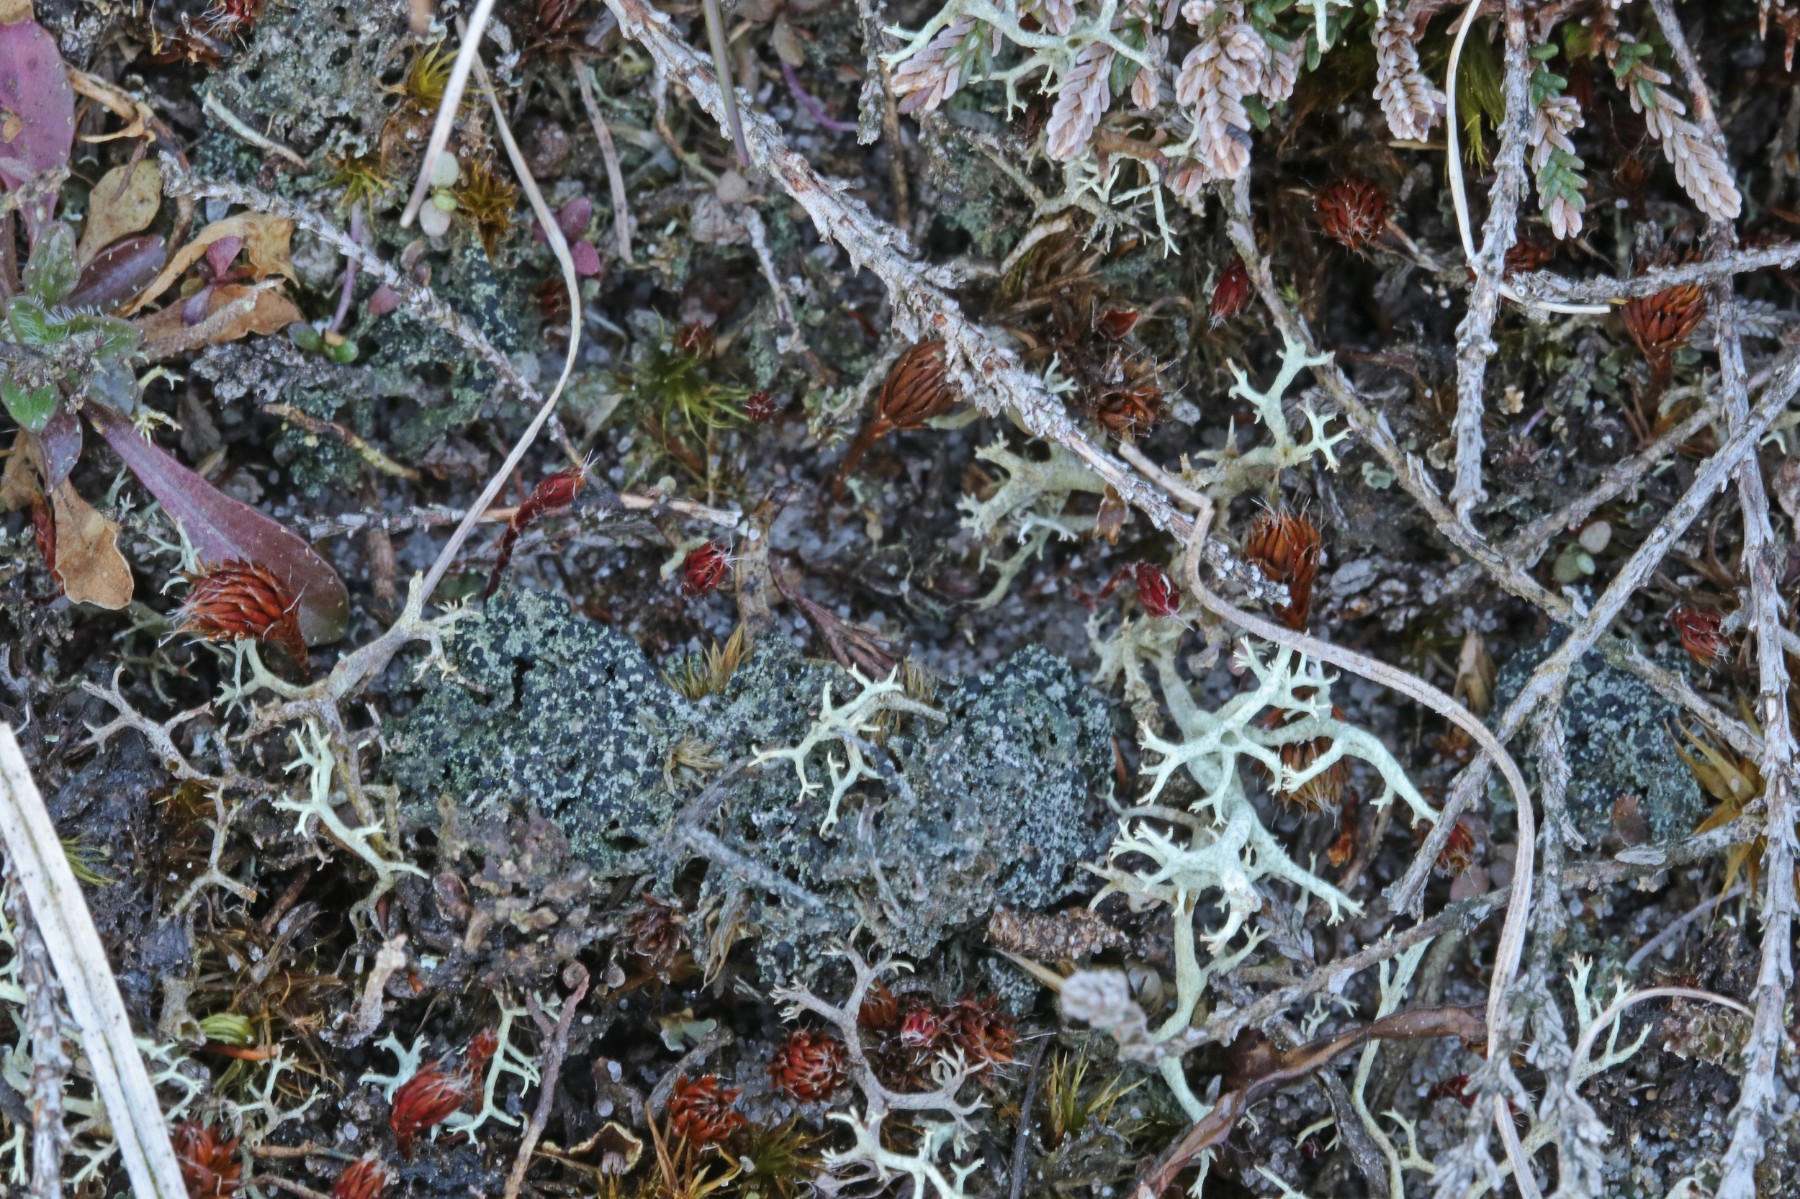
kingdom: Fungi
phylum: Ascomycota
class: Lecanoromycetes
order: Lecanorales
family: Byssolomataceae
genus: Micarea
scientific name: Micarea lignaria
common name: tørve-knaplav
